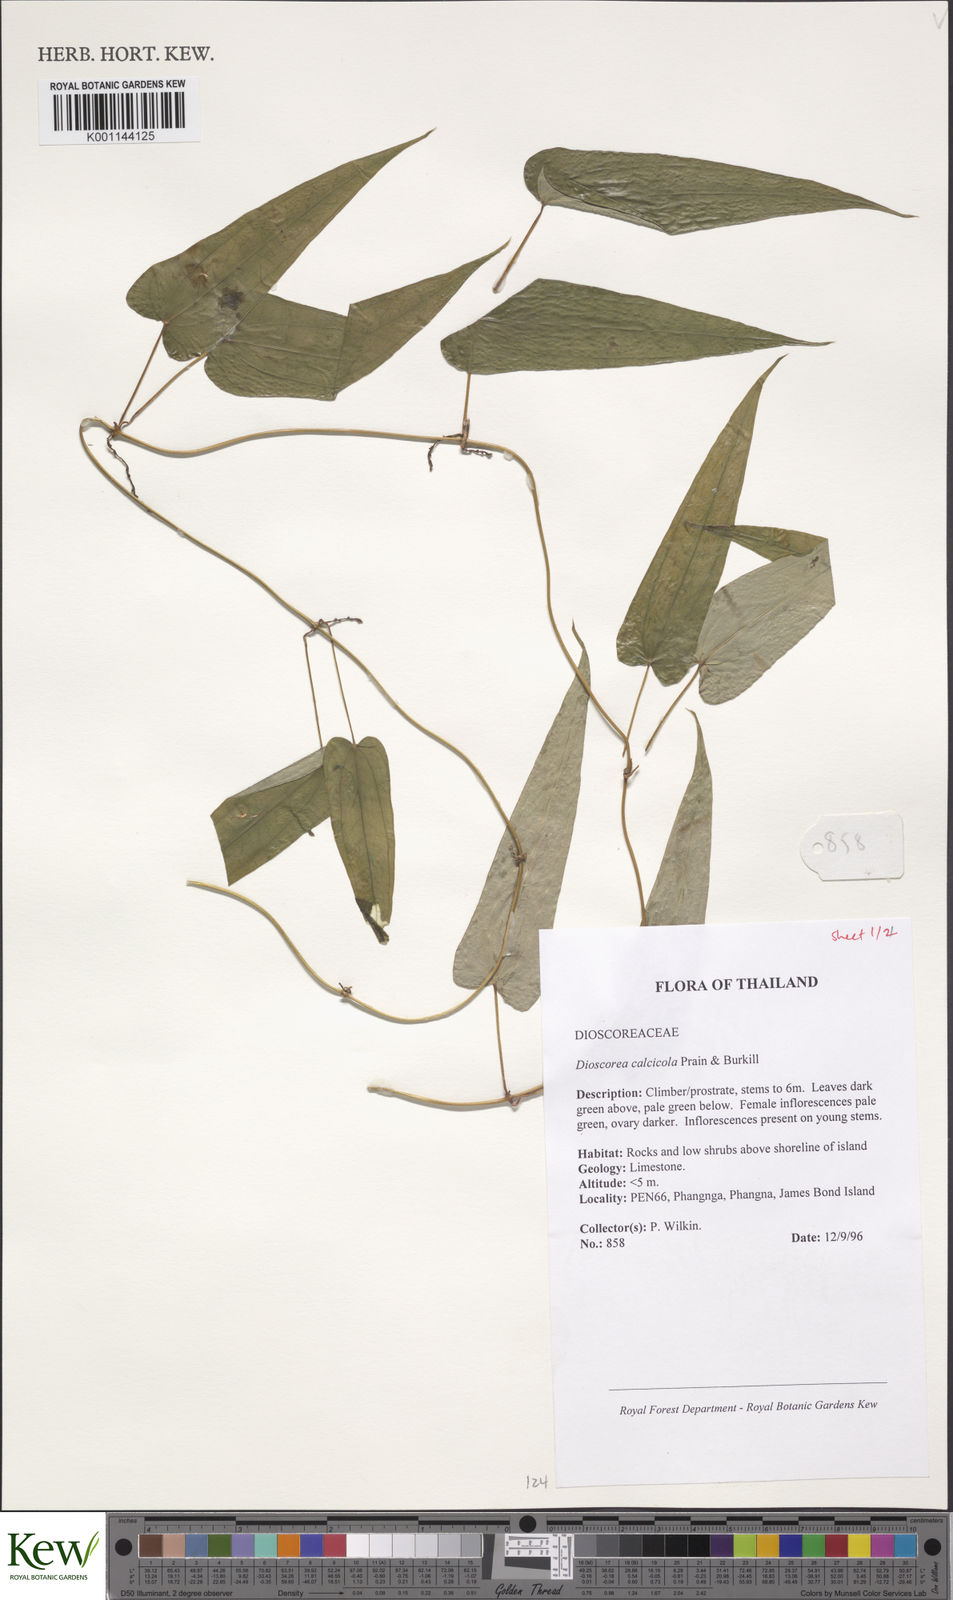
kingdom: Plantae
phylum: Tracheophyta
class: Liliopsida
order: Dioscoreales
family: Dioscoreaceae
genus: Dioscorea
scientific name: Dioscorea calcicola
